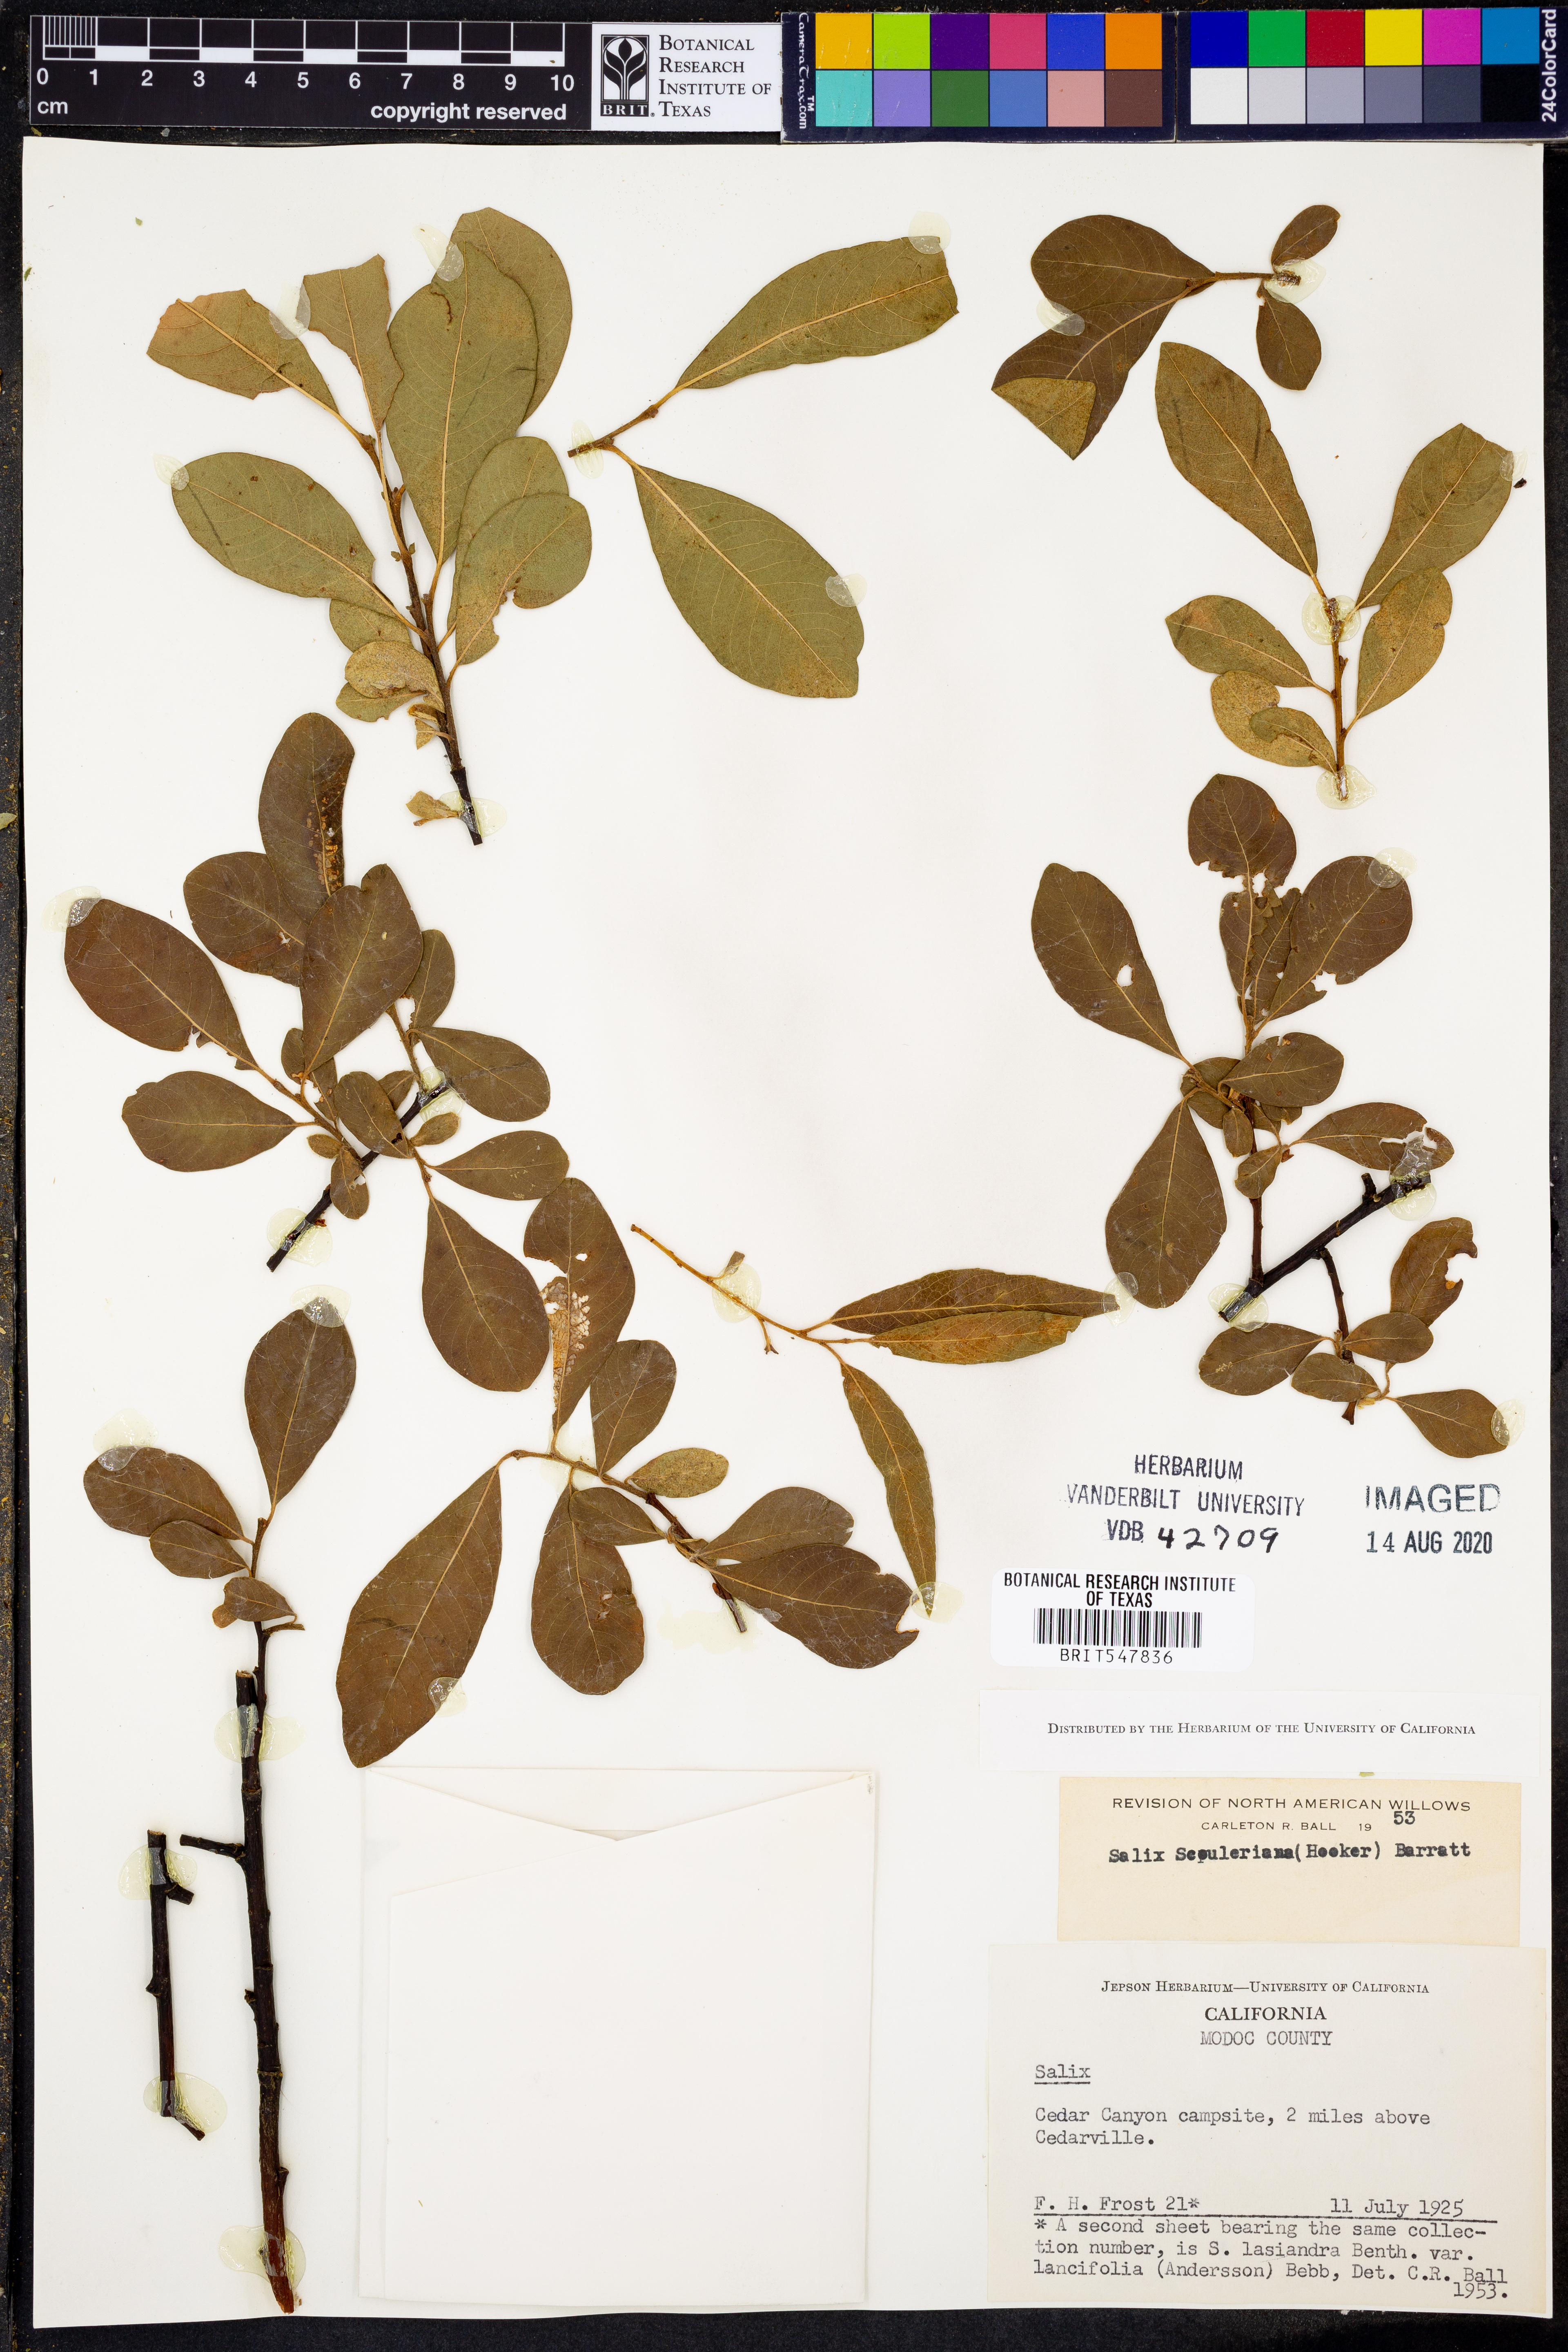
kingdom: Plantae
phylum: Tracheophyta
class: Magnoliopsida
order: Malpighiales
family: Salicaceae
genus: Salix
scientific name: Salix scouleriana
